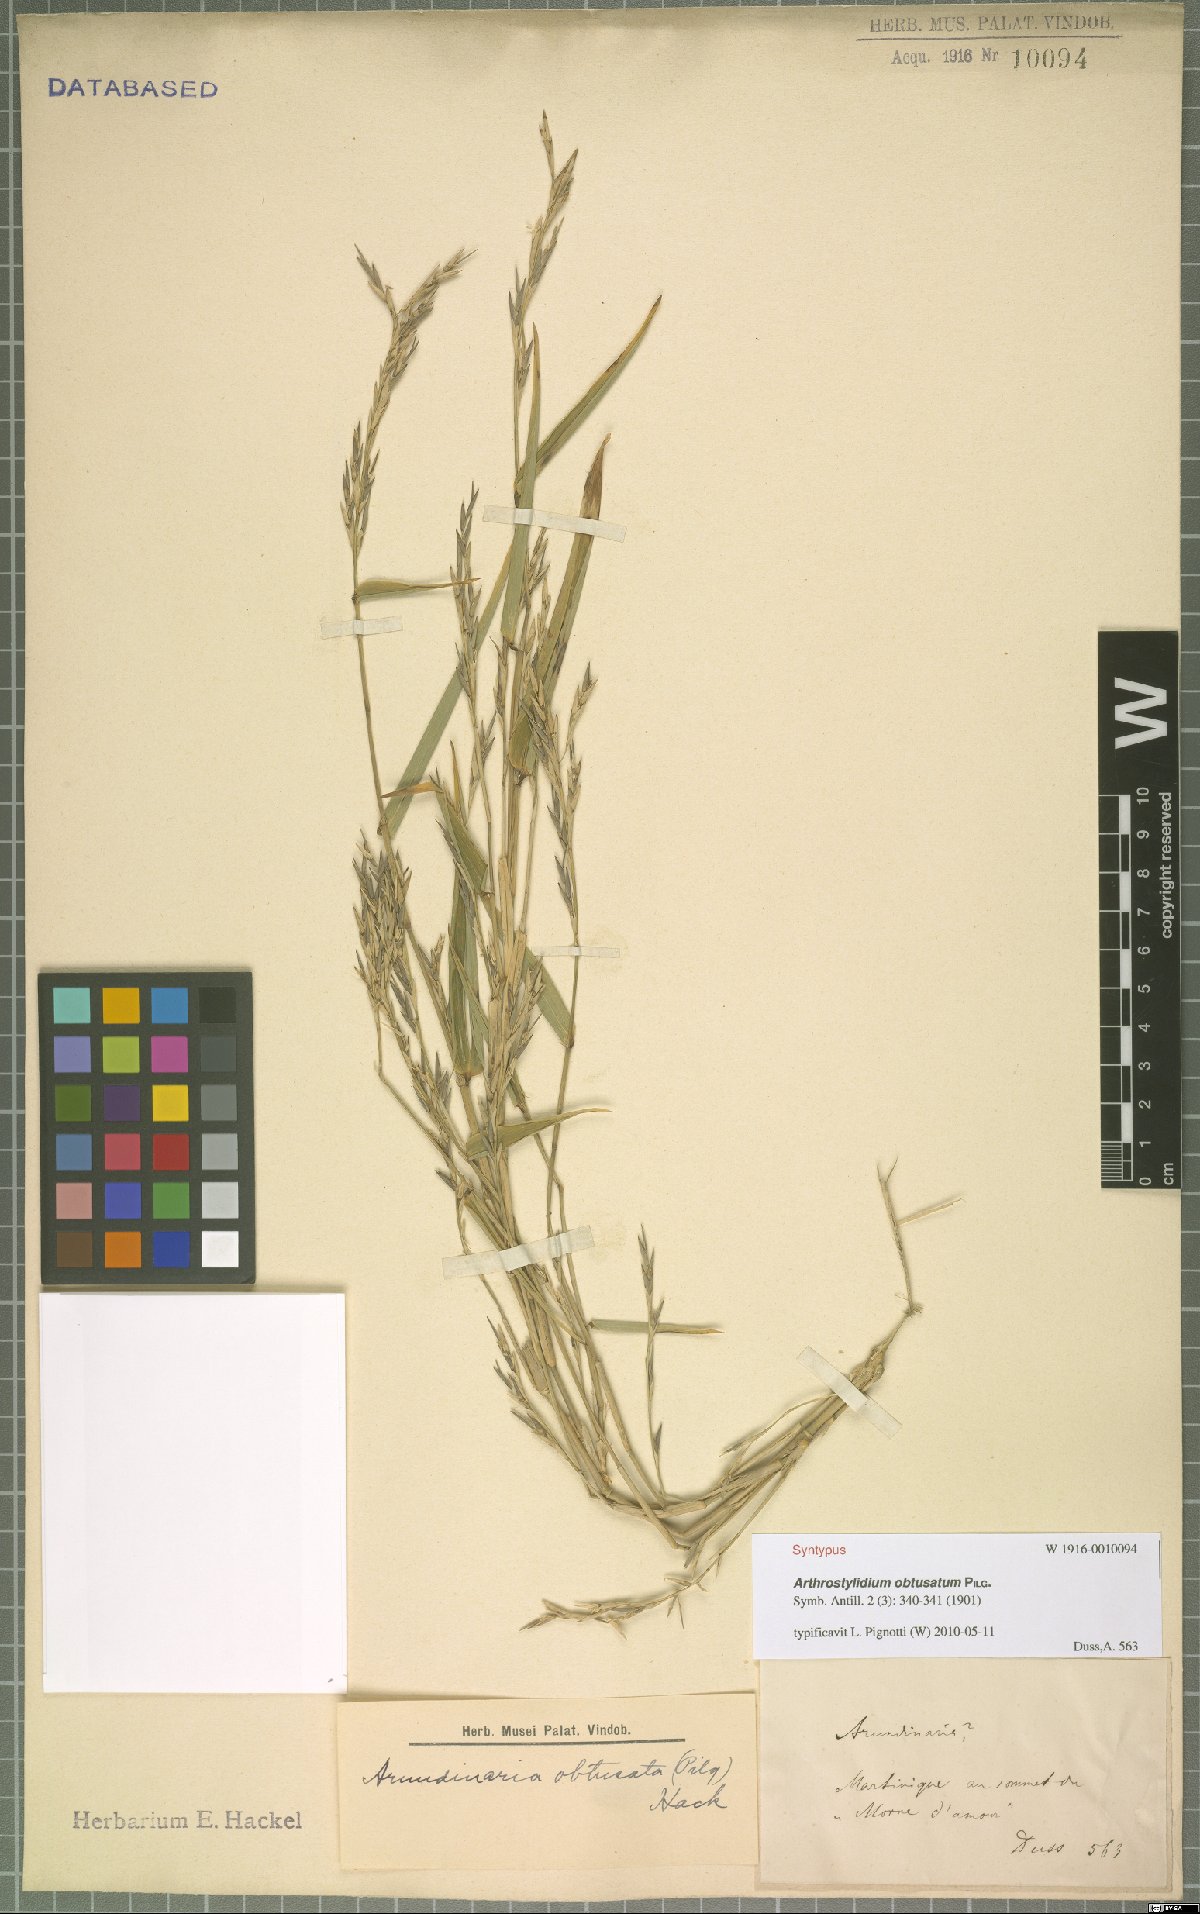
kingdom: Plantae
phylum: Tracheophyta
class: Liliopsida
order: Poales
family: Poaceae
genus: Arthrostylidium
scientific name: Arthrostylidium obtusatum
